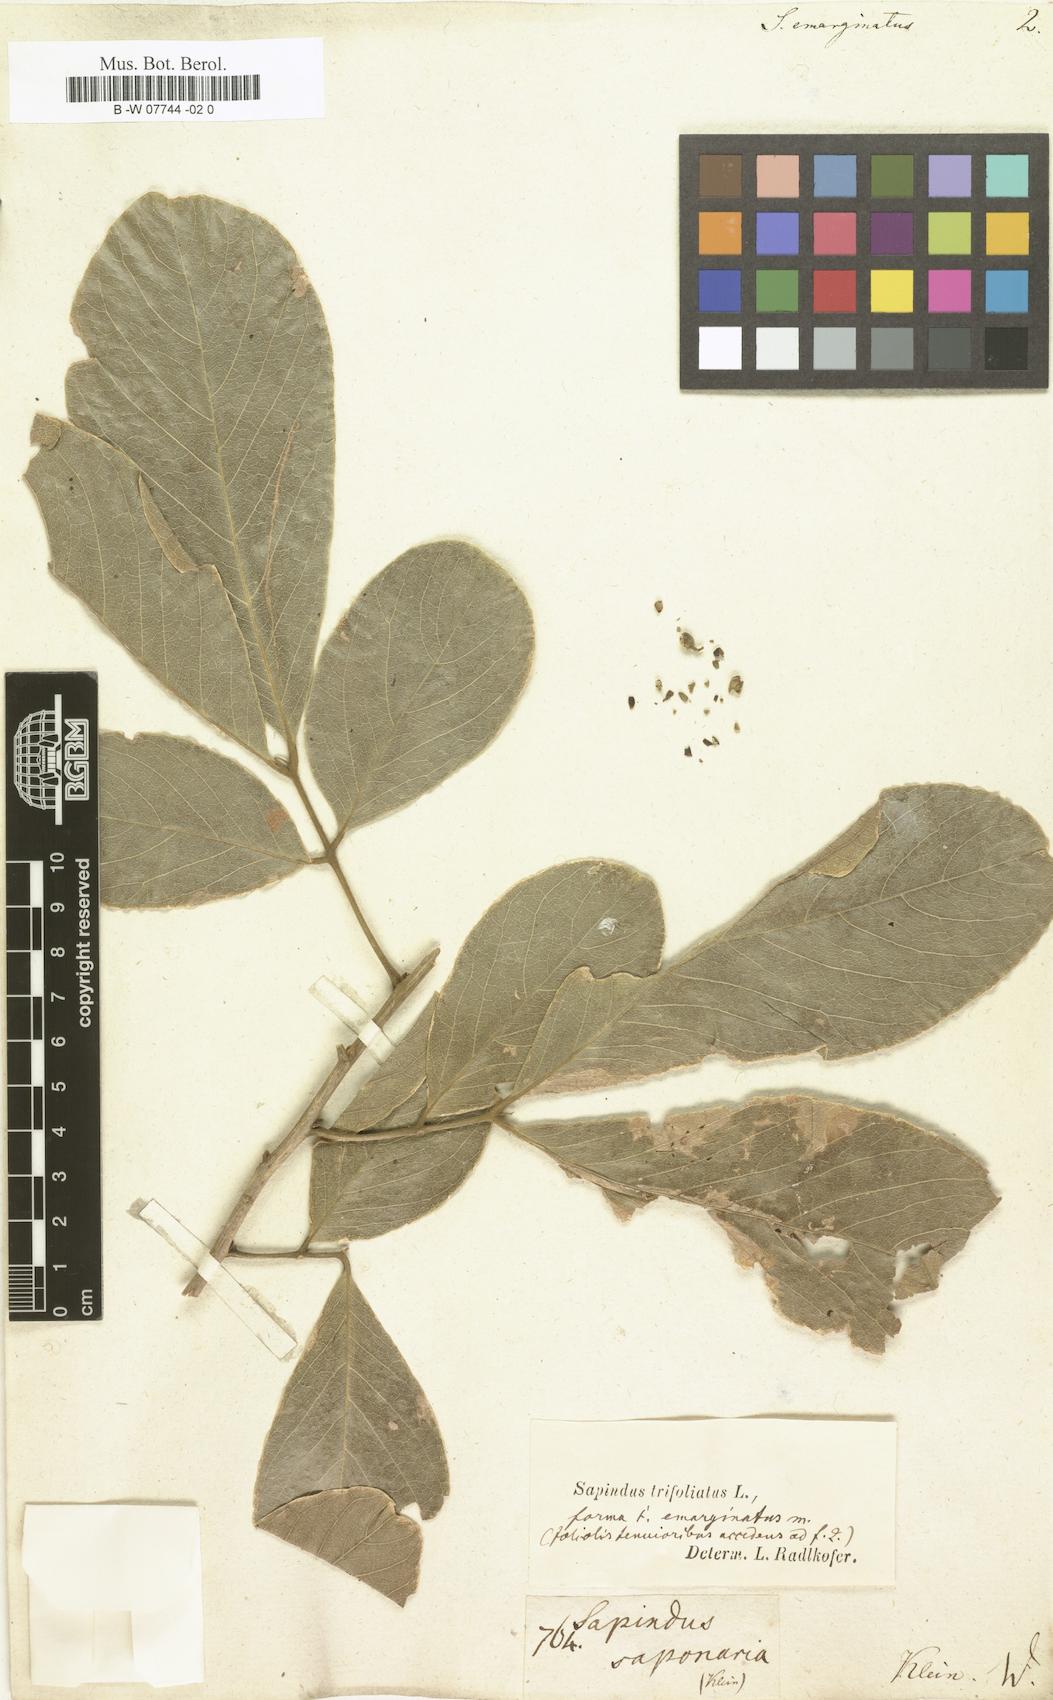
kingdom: Plantae
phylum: Tracheophyta
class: Magnoliopsida
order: Sapindales
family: Sapindaceae
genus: Sapindus
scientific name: Sapindus emarginatus
